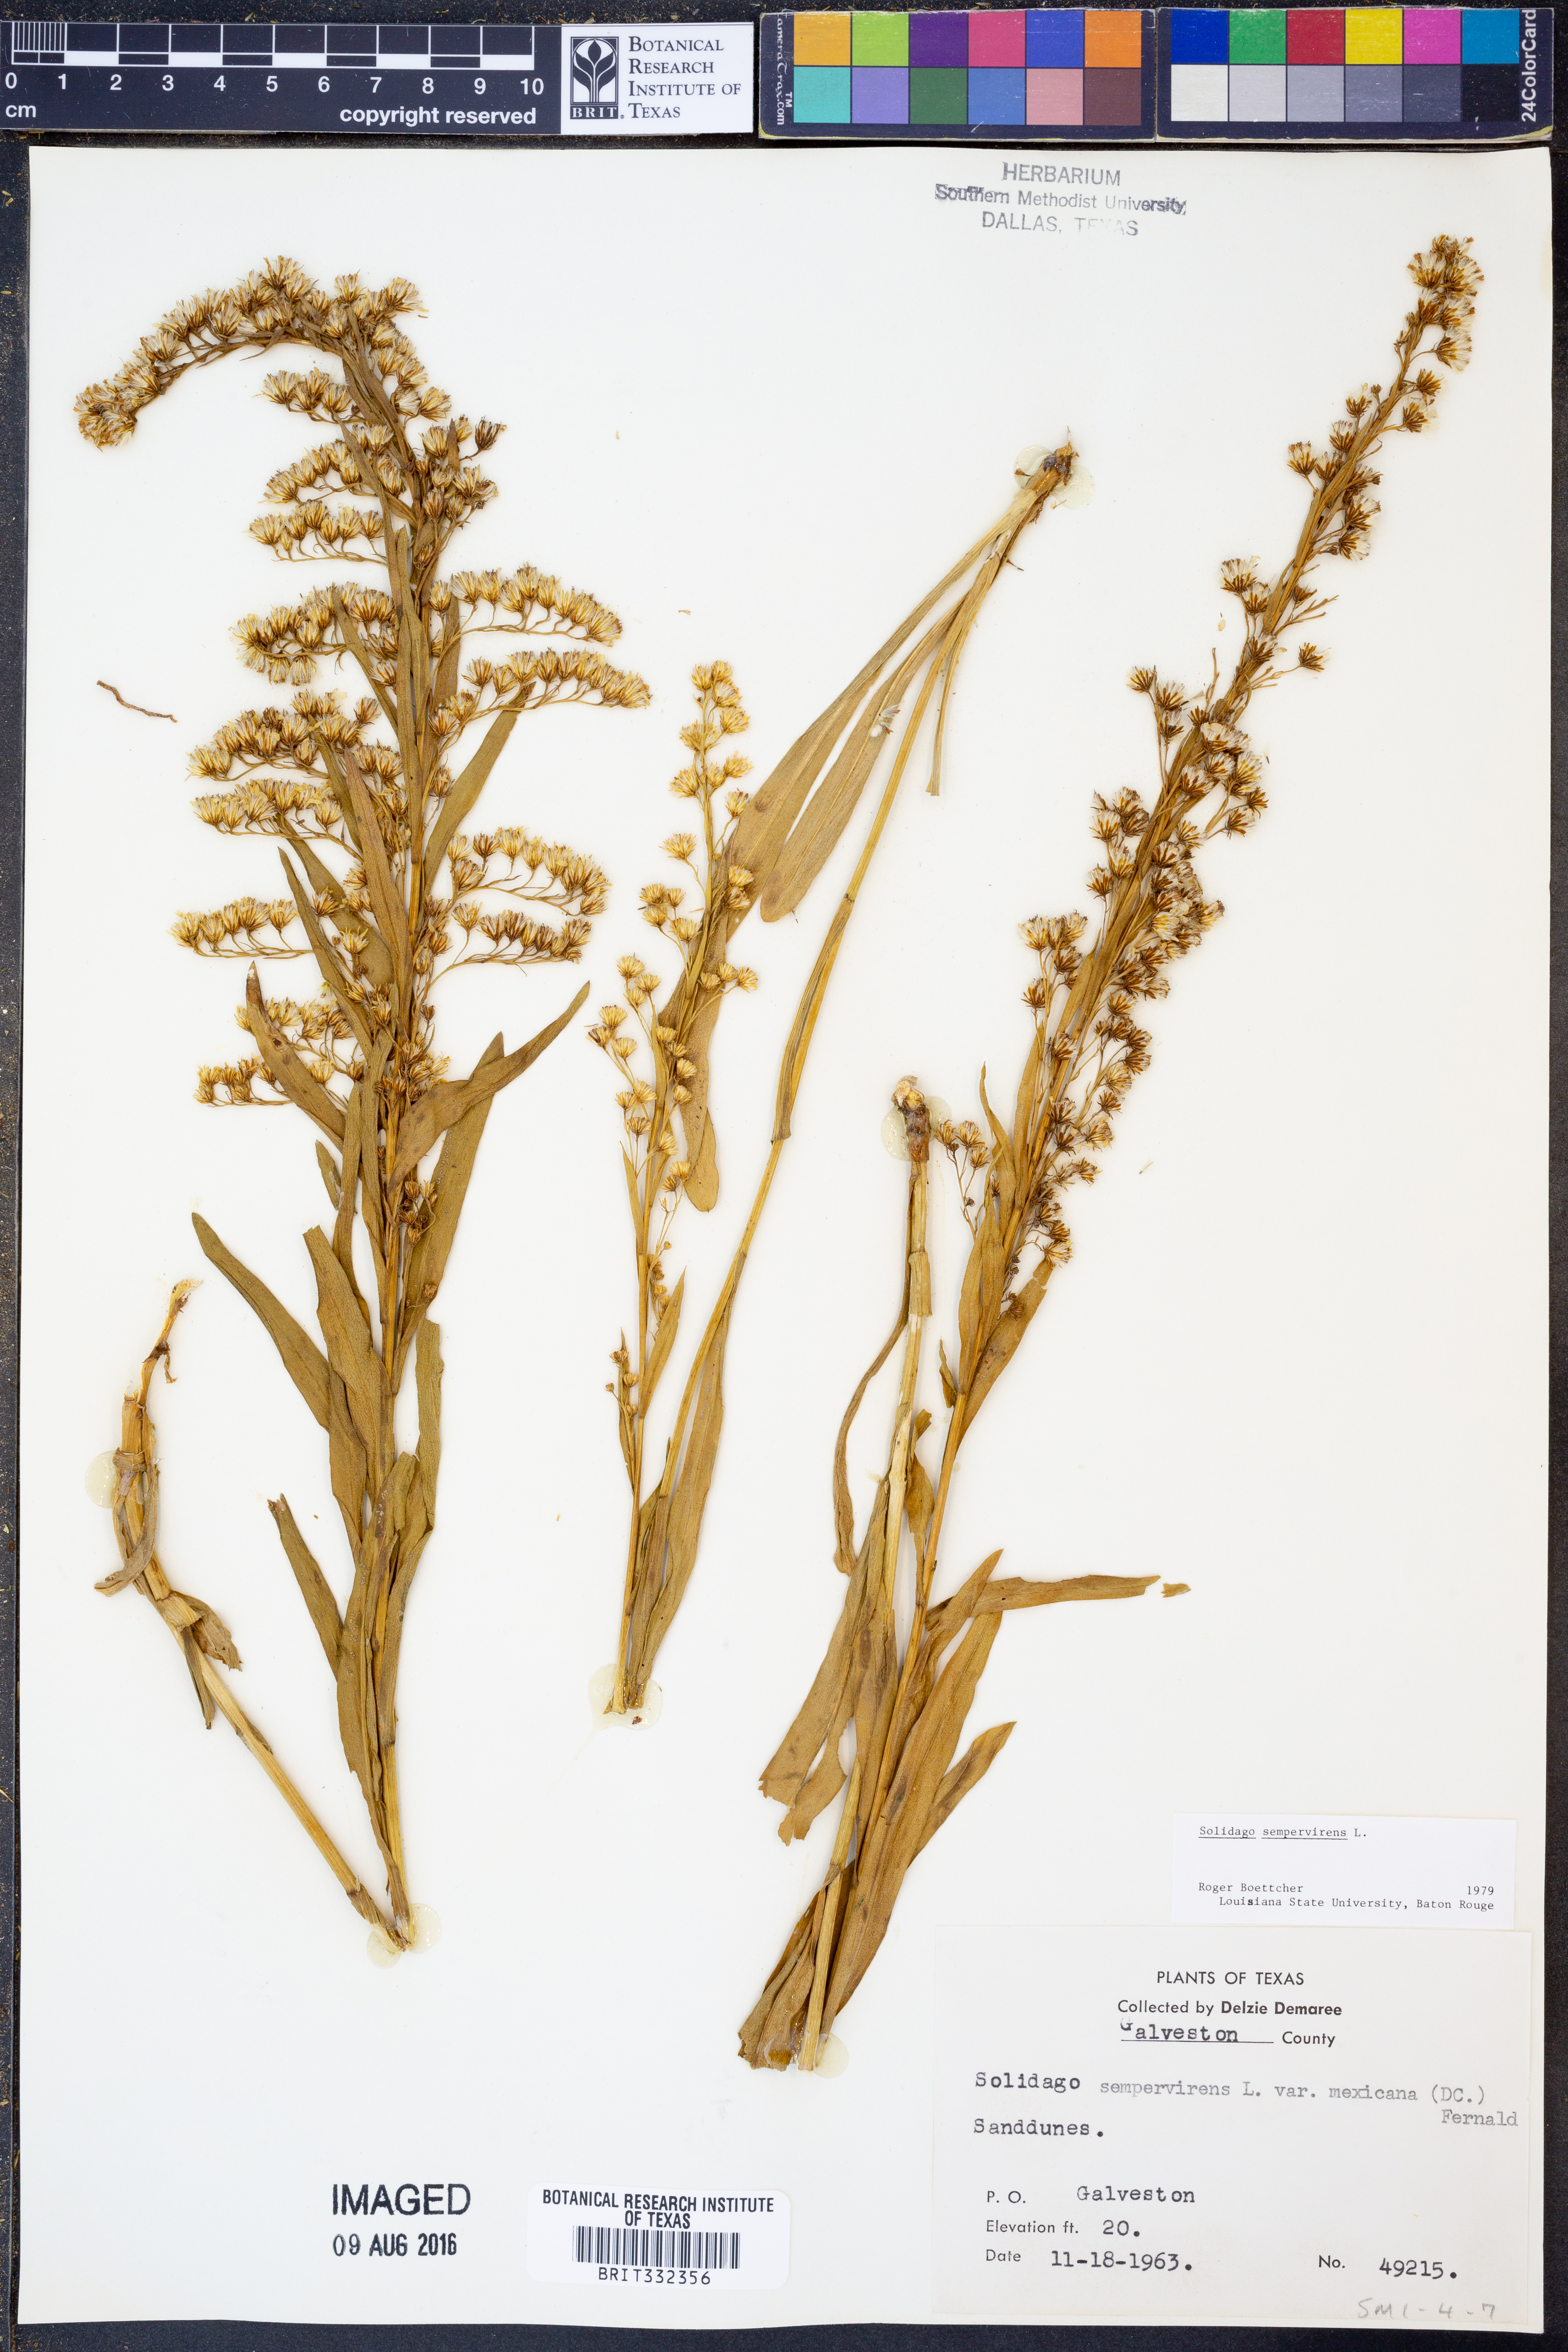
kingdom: Plantae
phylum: Tracheophyta
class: Magnoliopsida
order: Asterales
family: Asteraceae
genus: Solidago
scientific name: Solidago sempervirens
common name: Salt-marsh goldenrod
